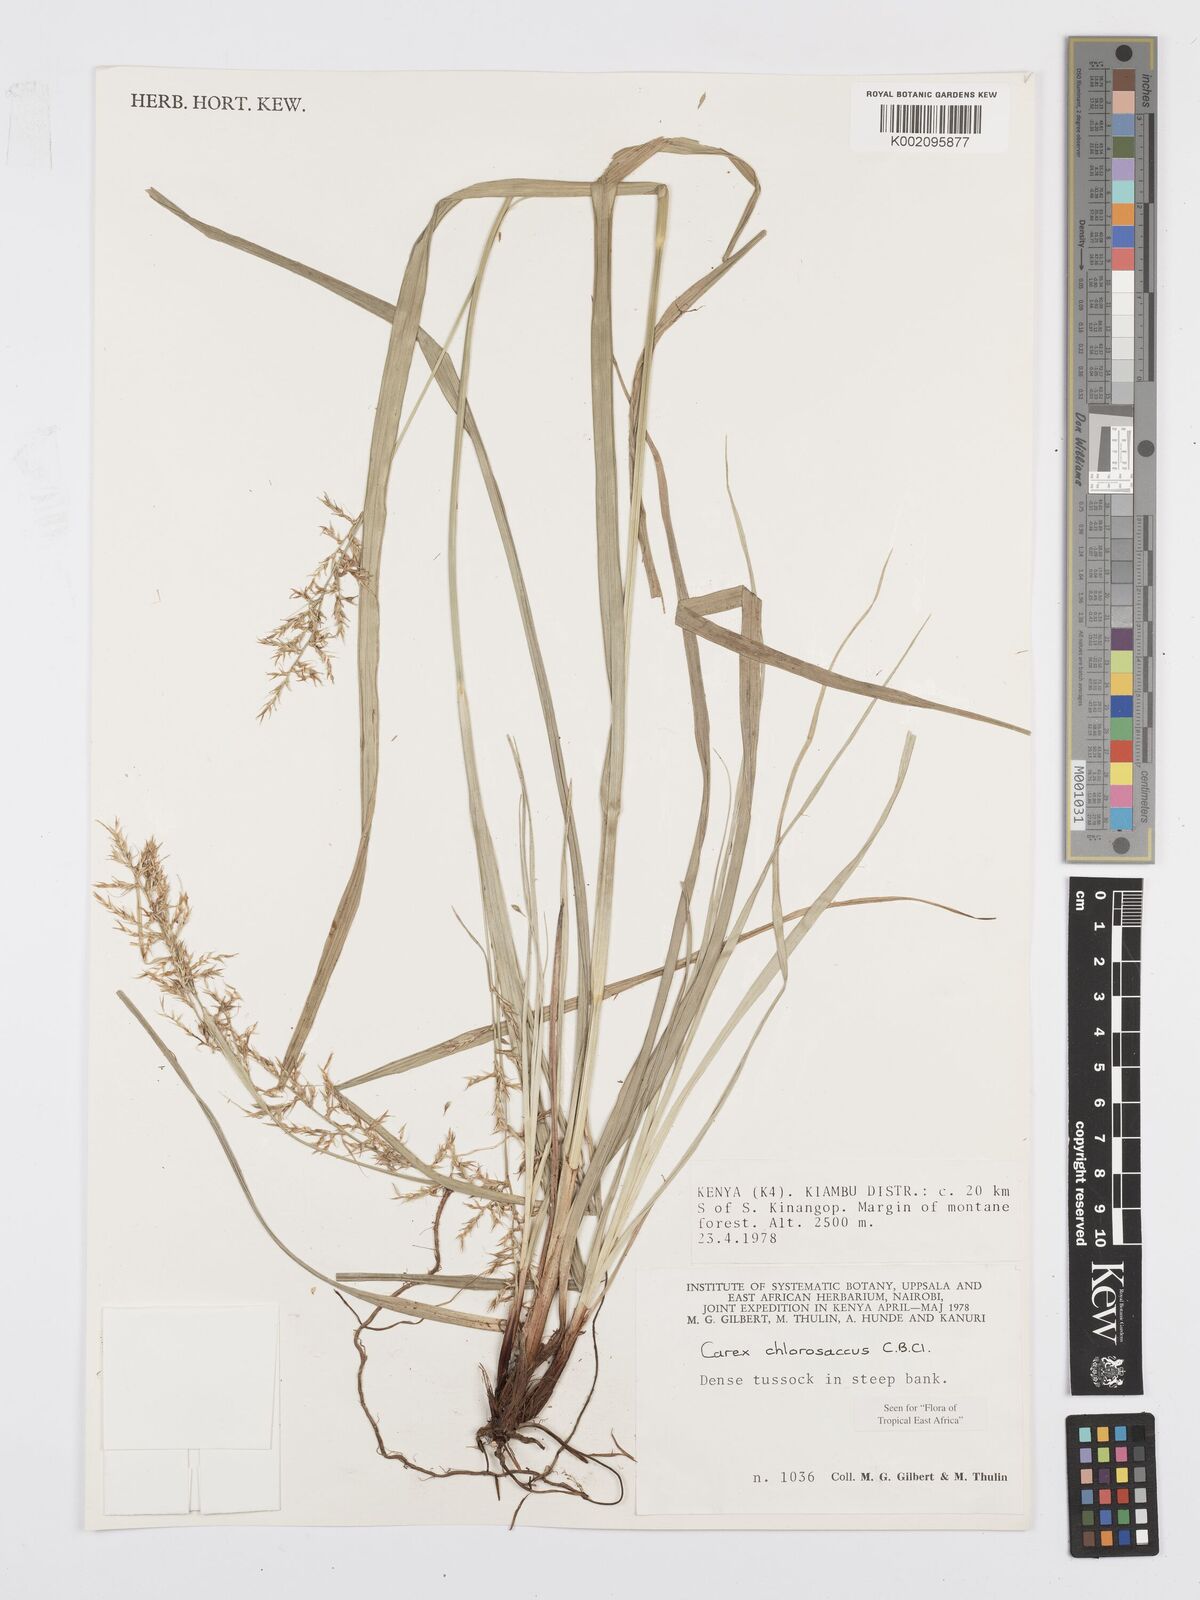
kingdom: Plantae
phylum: Tracheophyta
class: Liliopsida
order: Poales
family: Cyperaceae
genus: Carex
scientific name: Carex chlorosaccus
